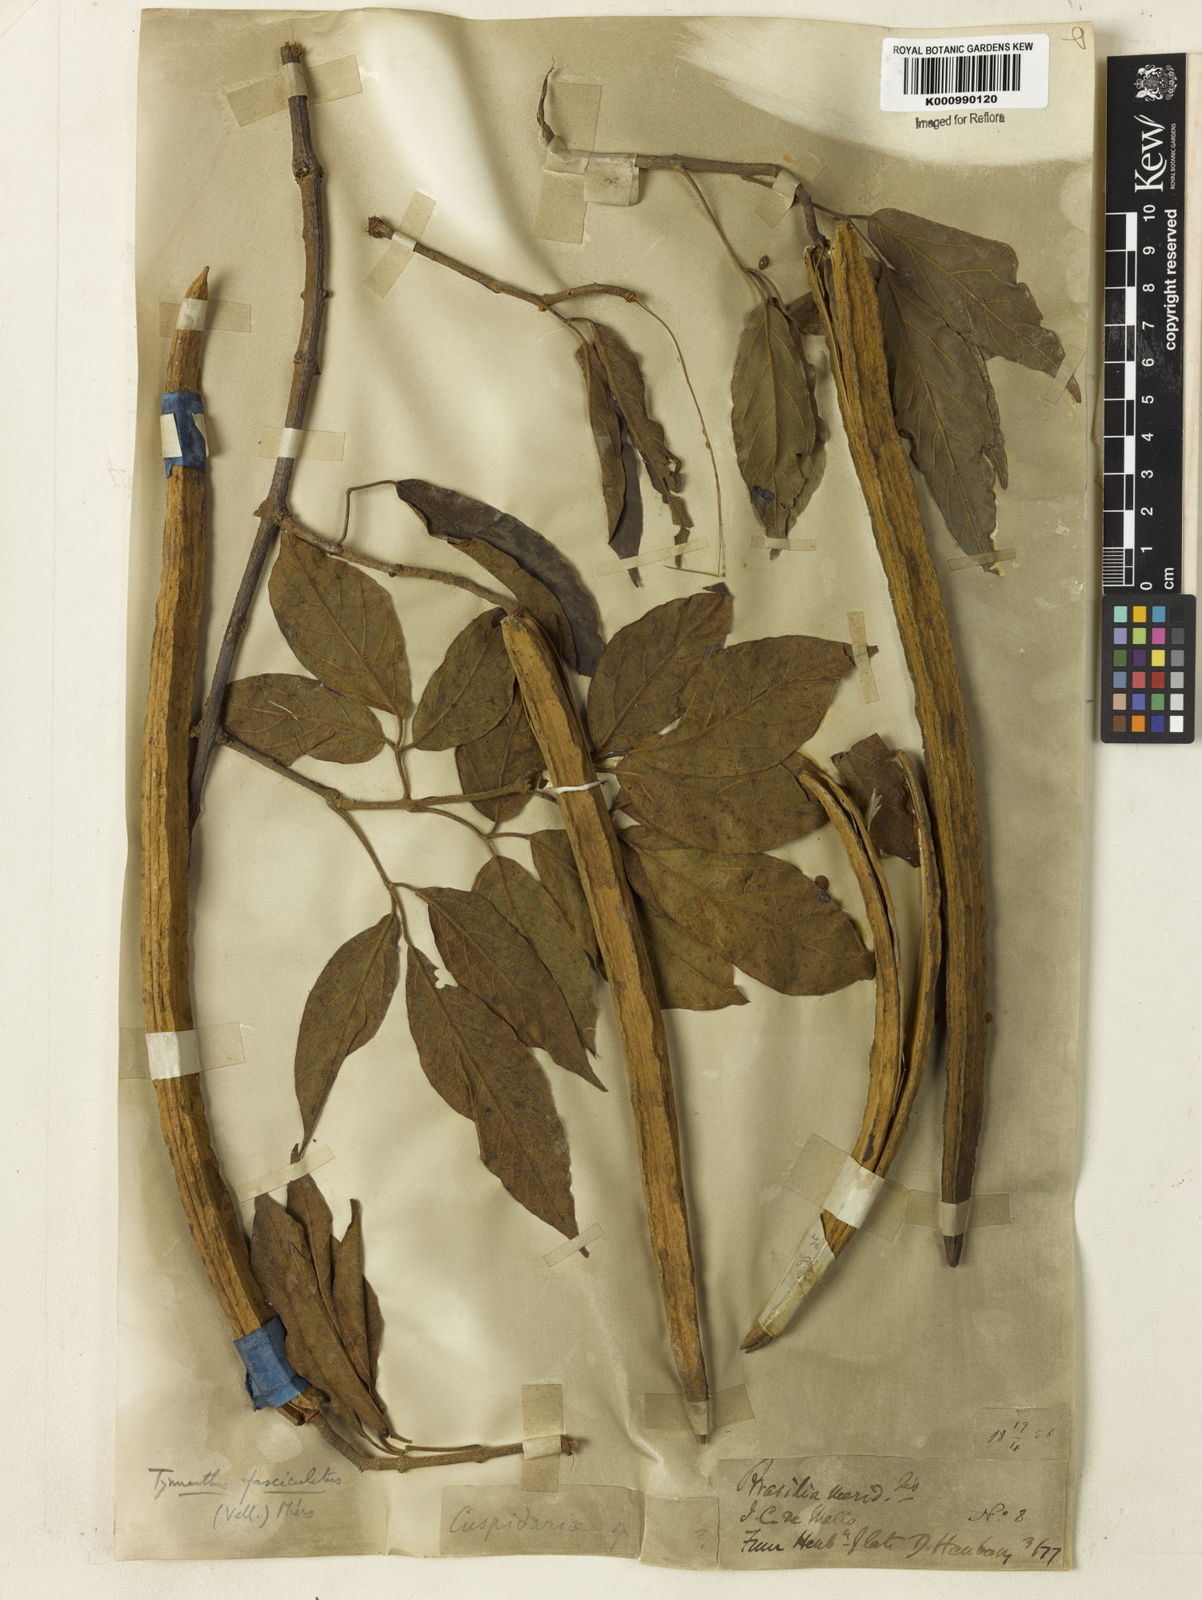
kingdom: Plantae
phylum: Tracheophyta
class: Magnoliopsida
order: Lamiales
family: Bignoniaceae
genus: Tynanthus
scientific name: Tynanthus fasciculatus
